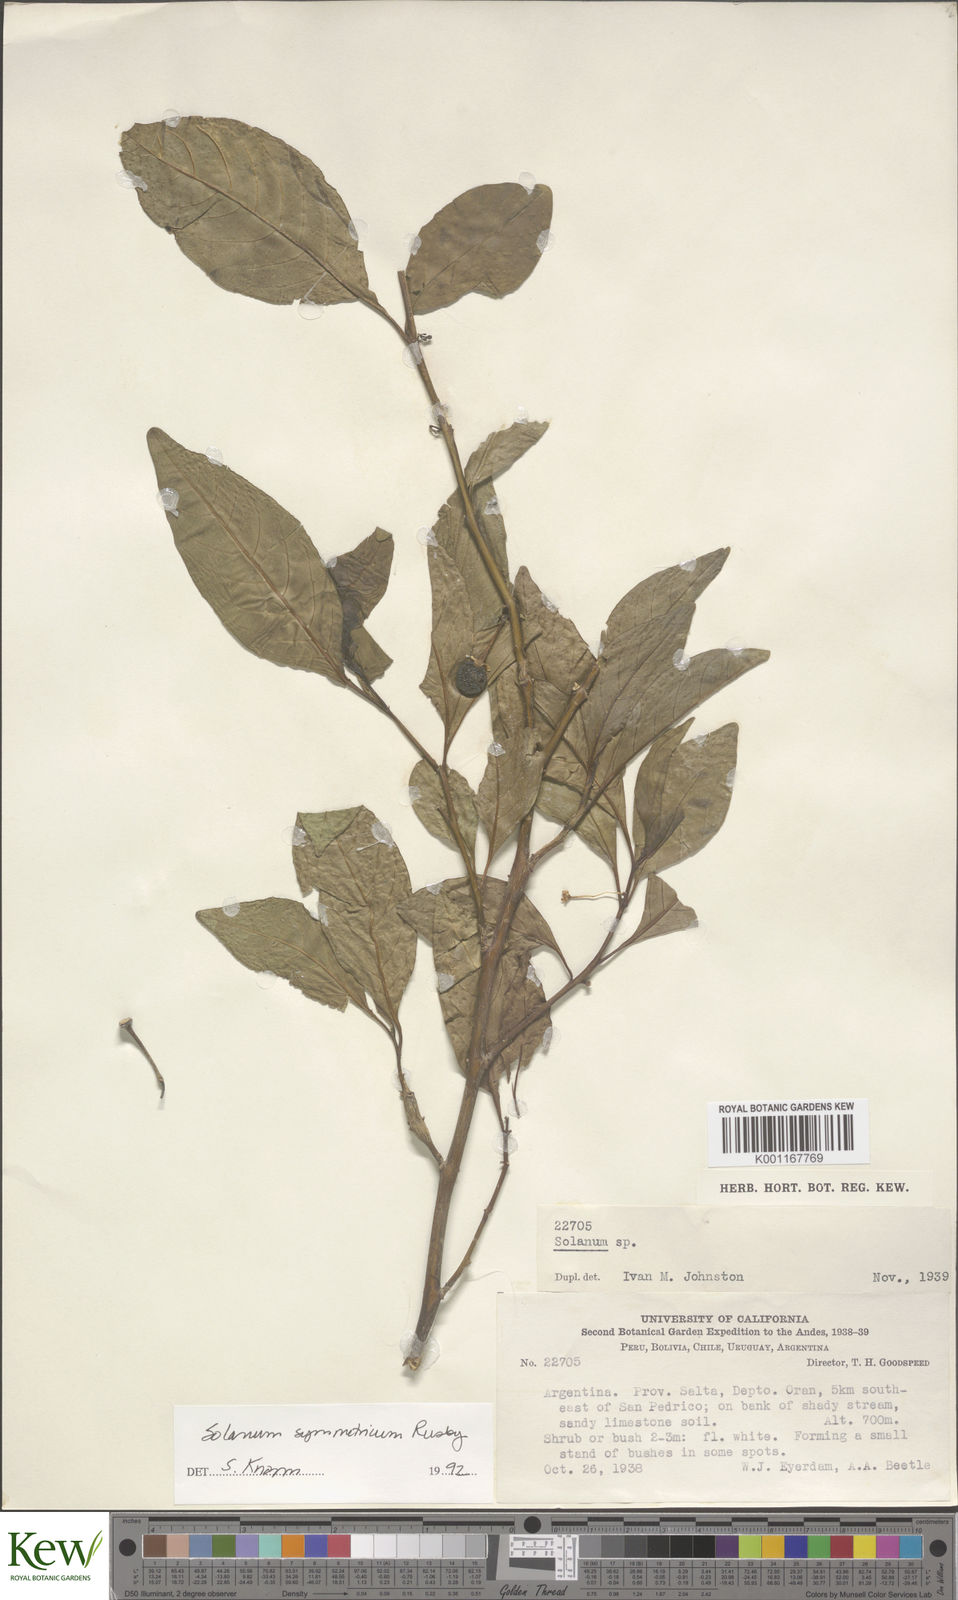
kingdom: Plantae
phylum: Tracheophyta
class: Magnoliopsida
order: Solanales
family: Solanaceae
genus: Solanum
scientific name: Solanum symmetricum
